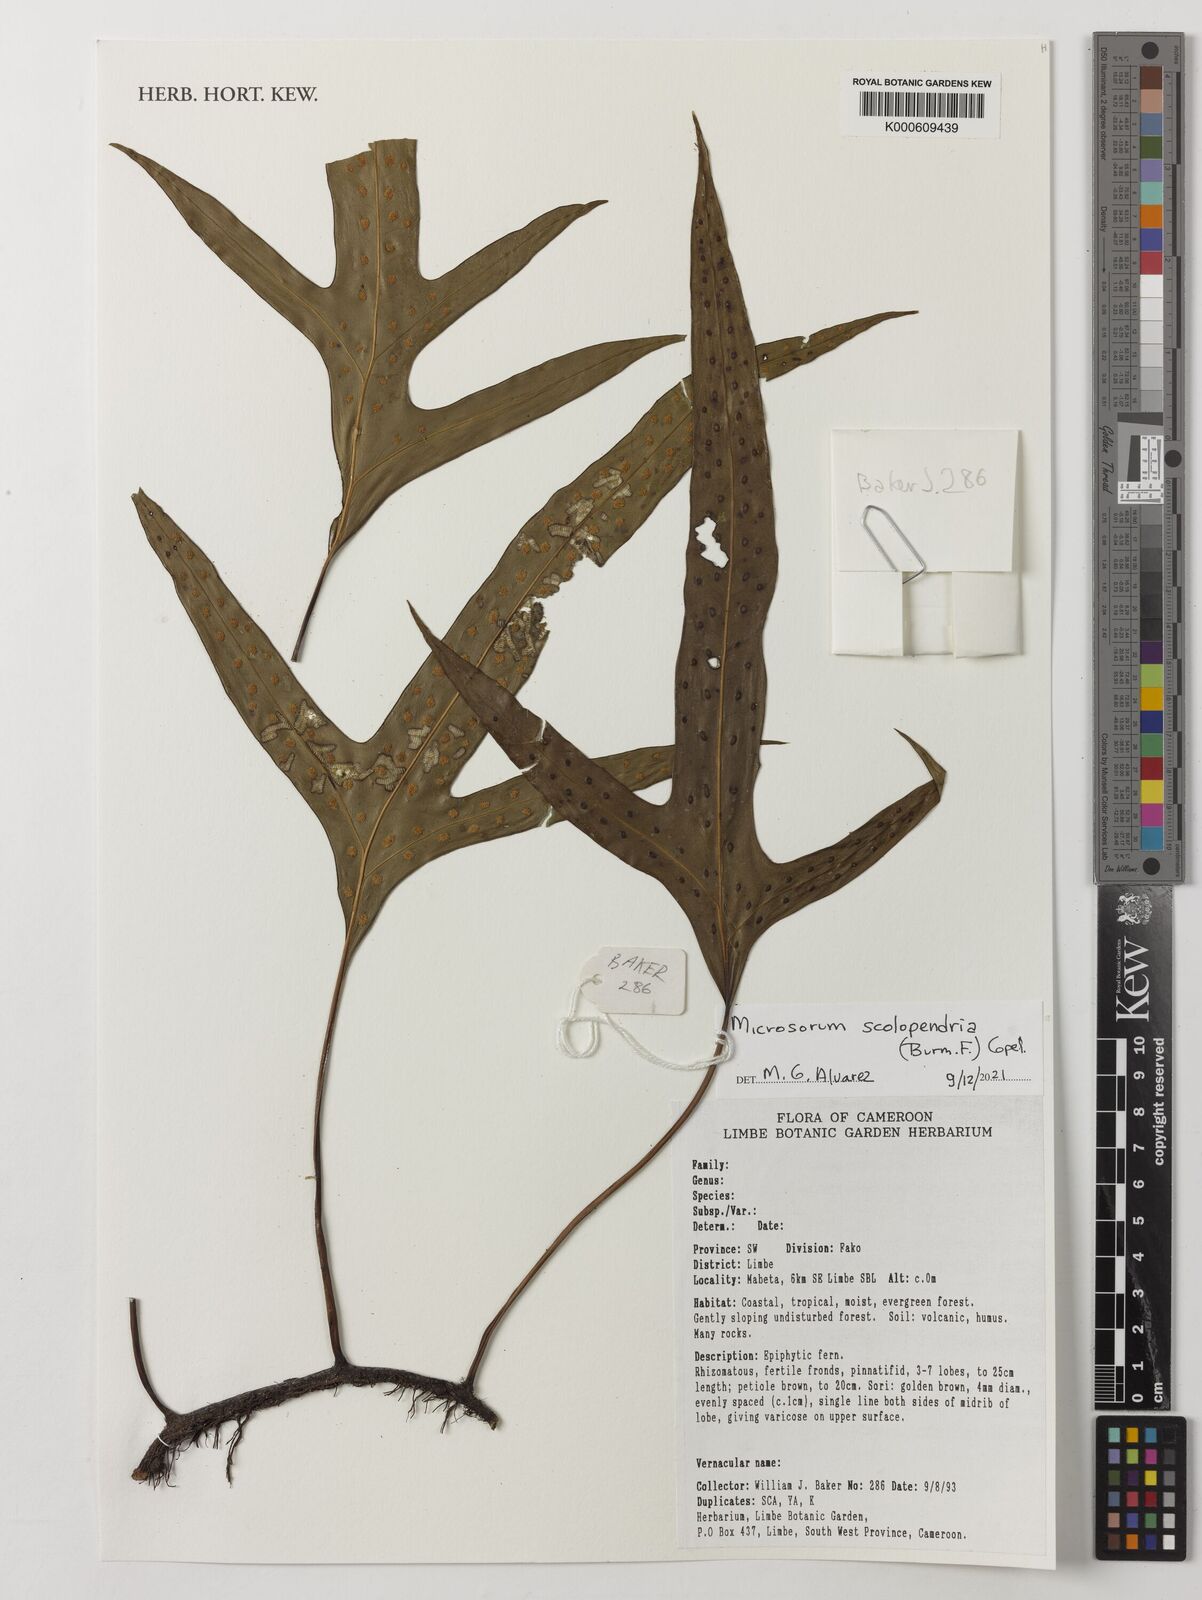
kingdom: Plantae
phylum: Tracheophyta
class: Polypodiopsida
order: Polypodiales
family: Polypodiaceae
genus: Microsorum
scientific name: Microsorum scolopendria
